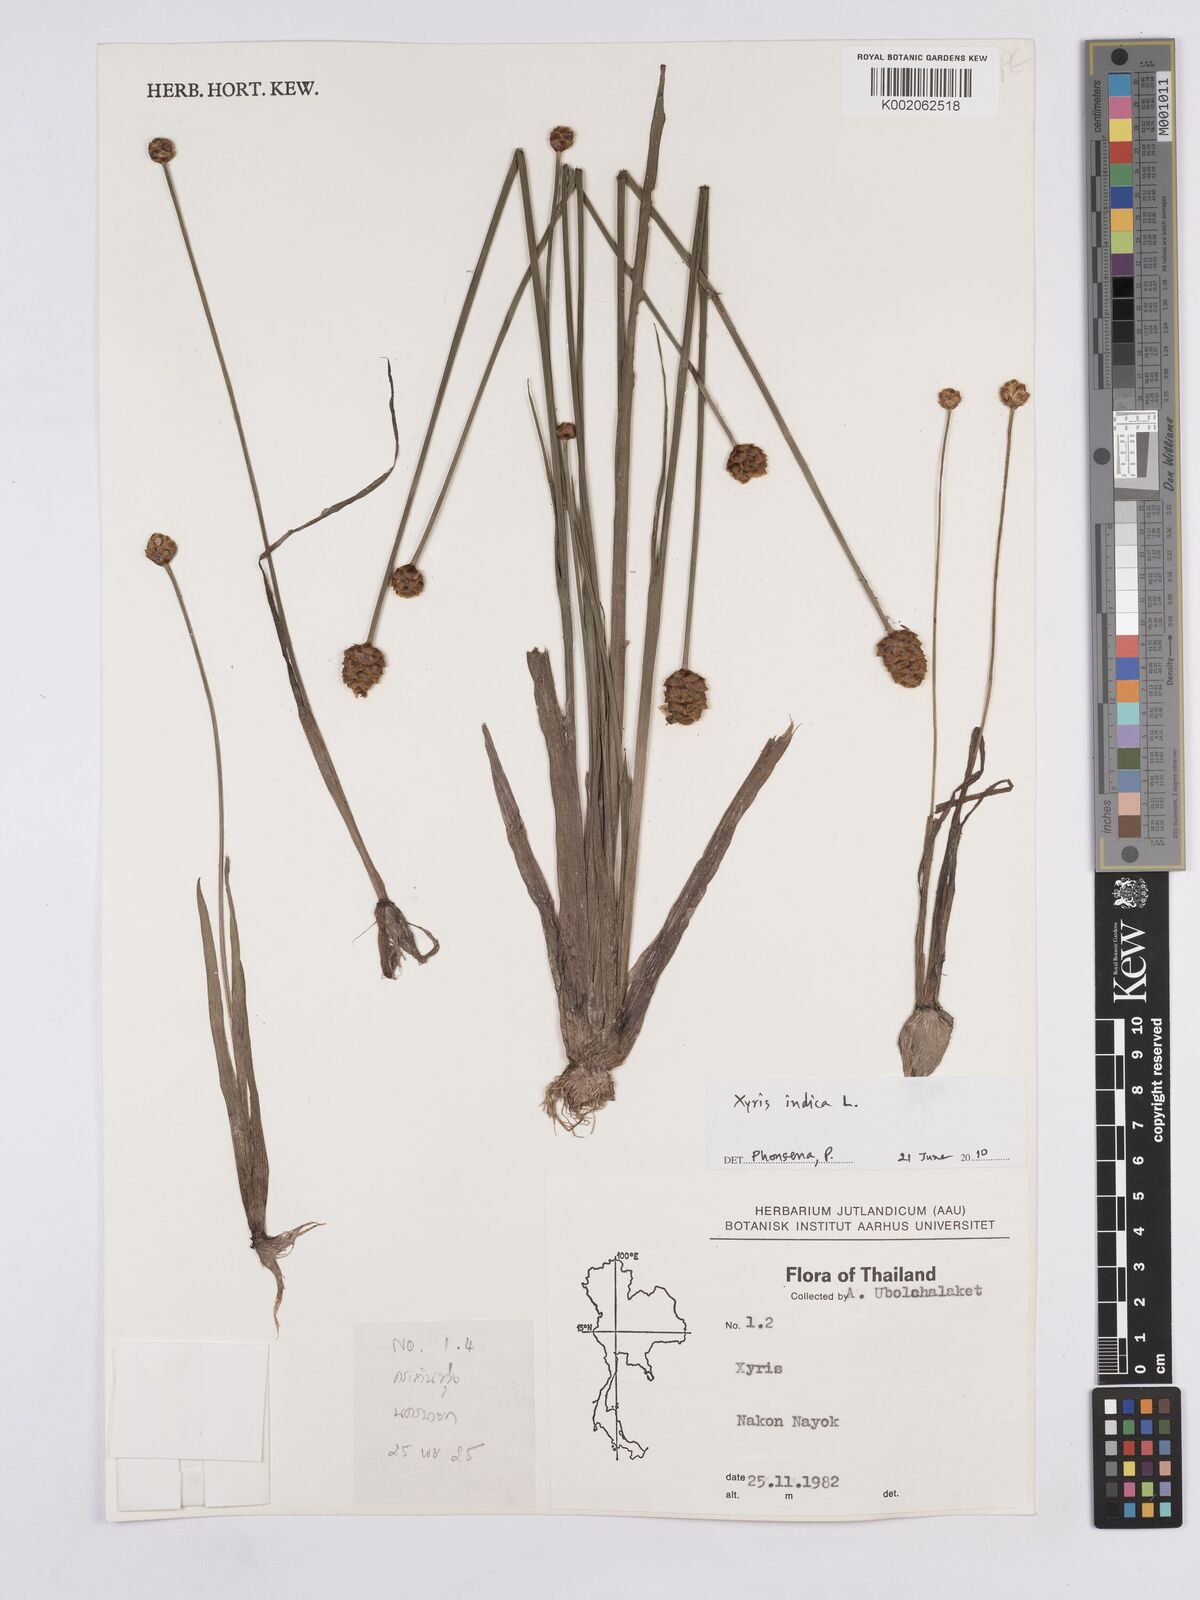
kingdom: Plantae
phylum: Tracheophyta
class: Liliopsida
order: Poales
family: Xyridaceae
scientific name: Xyridaceae
